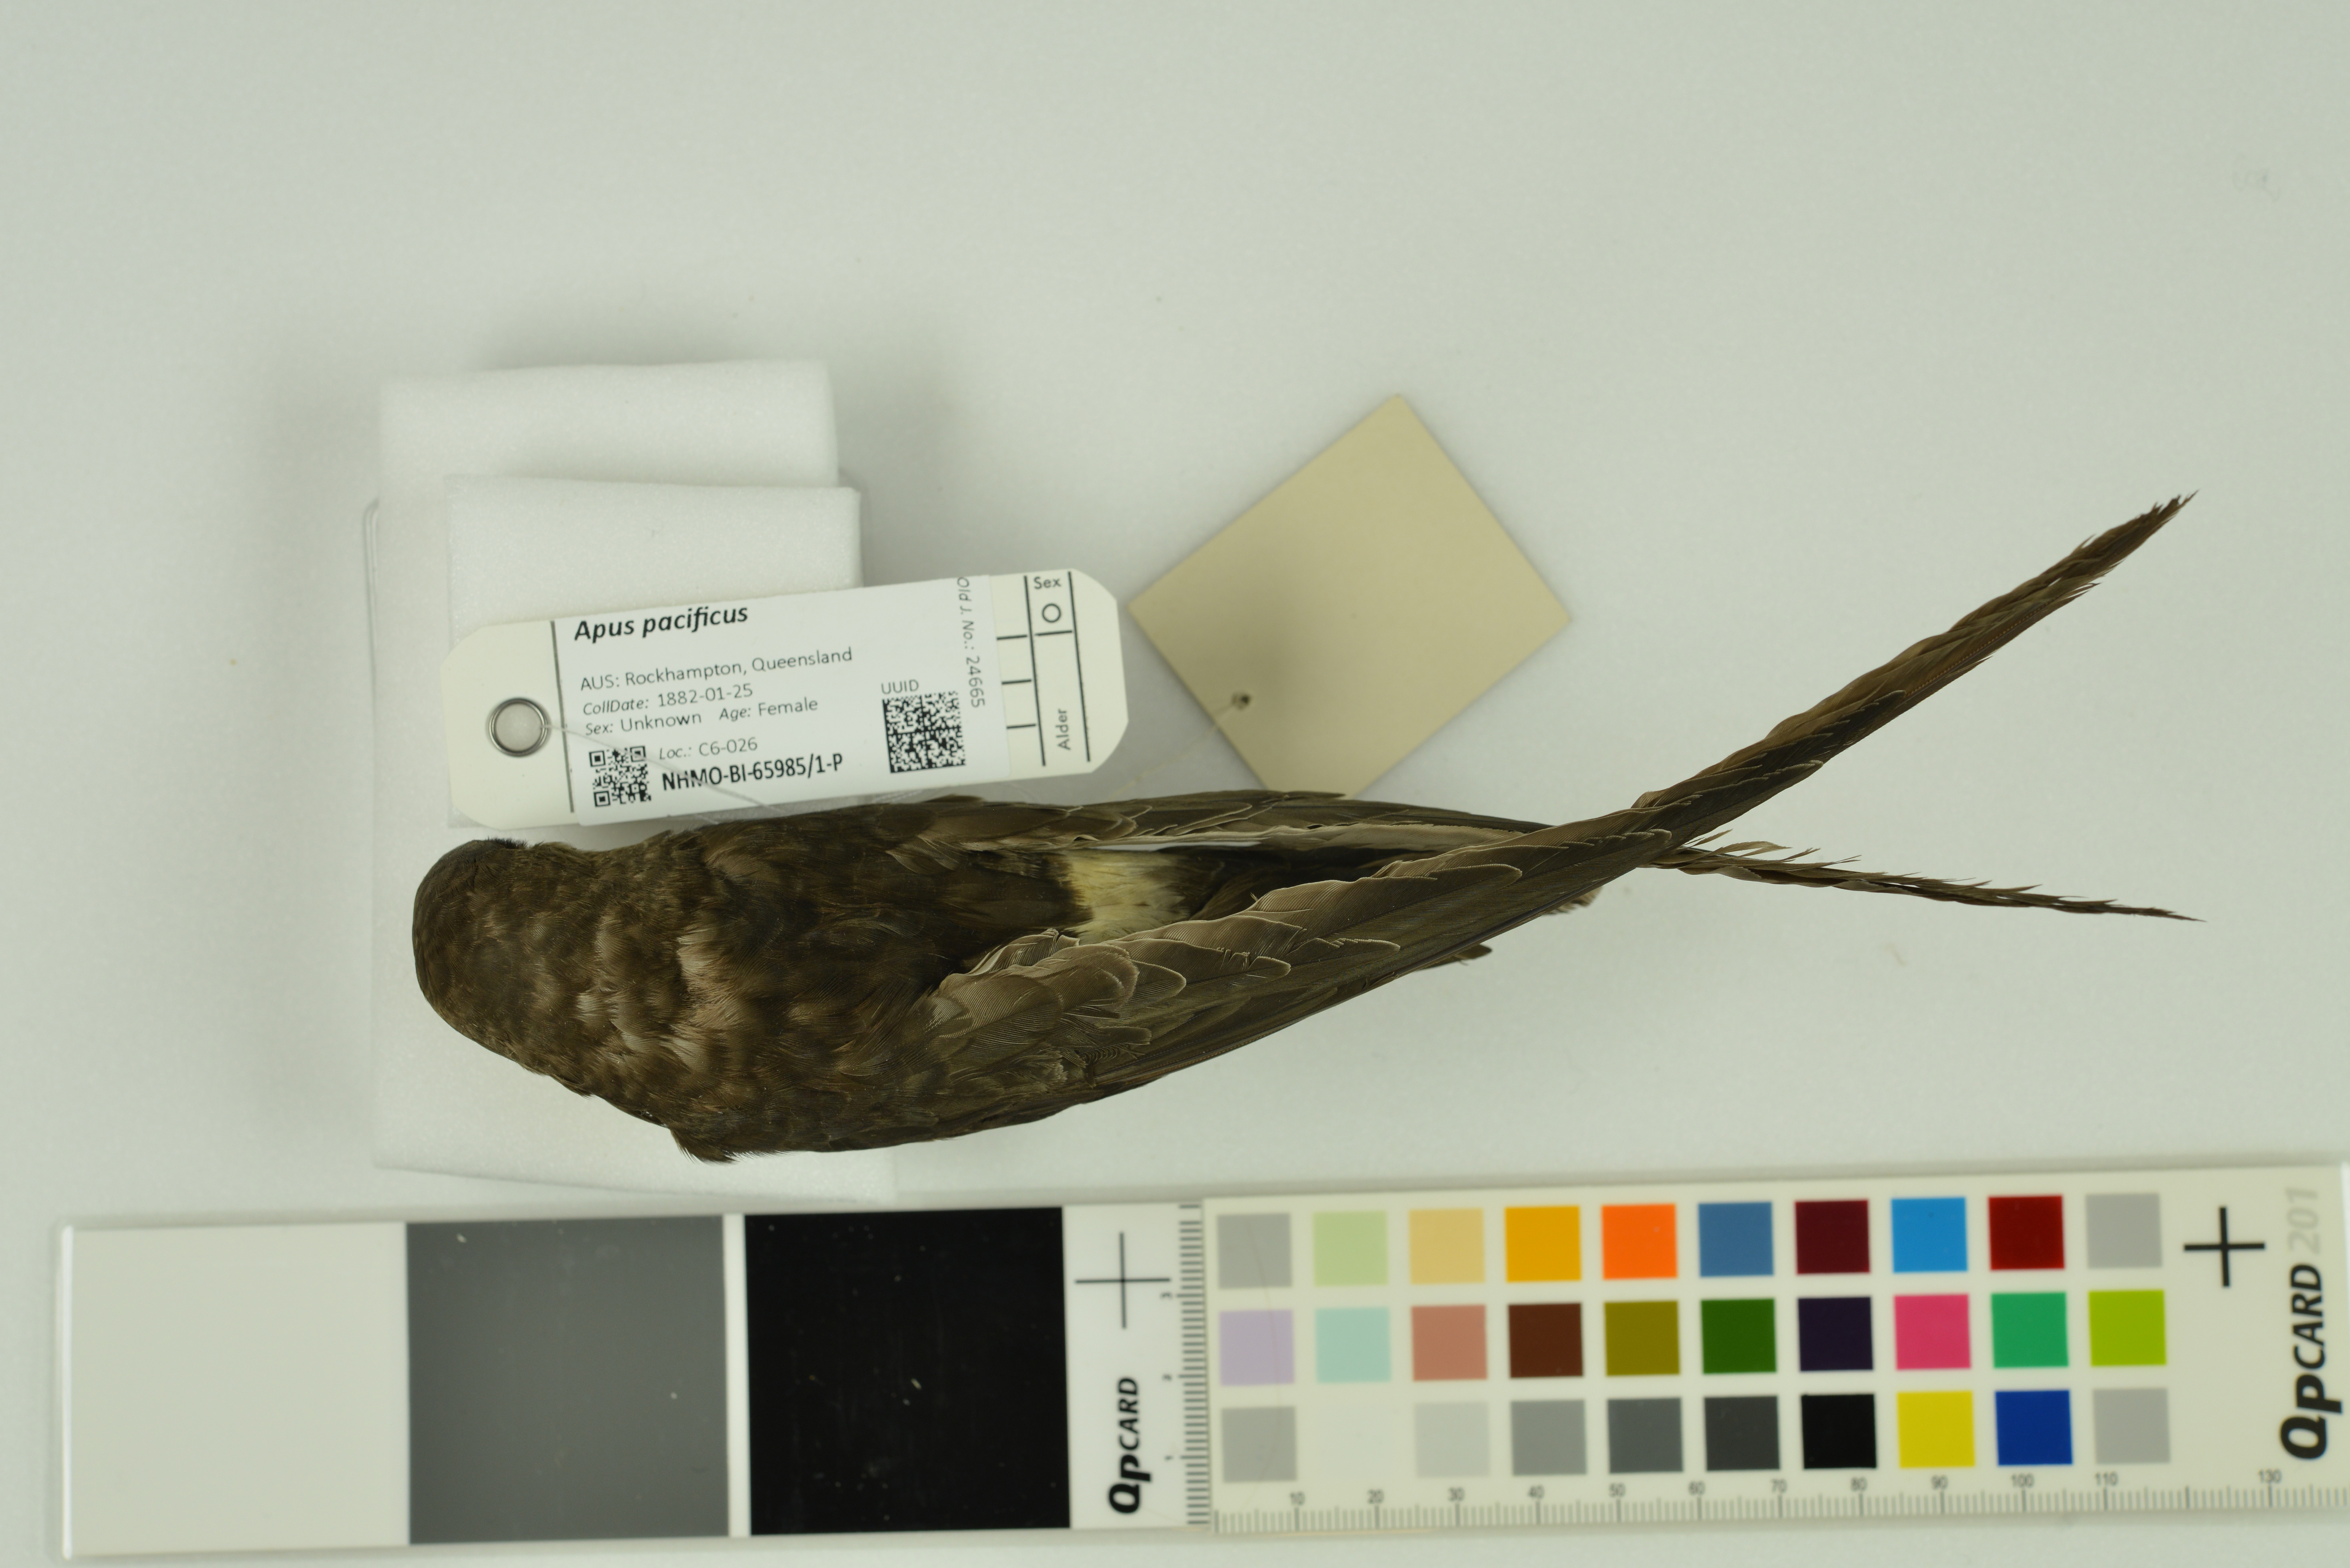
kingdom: Animalia
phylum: Chordata
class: Aves
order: Apodiformes
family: Apodidae
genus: Apus
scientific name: Apus pacificus
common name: Pacific swift
